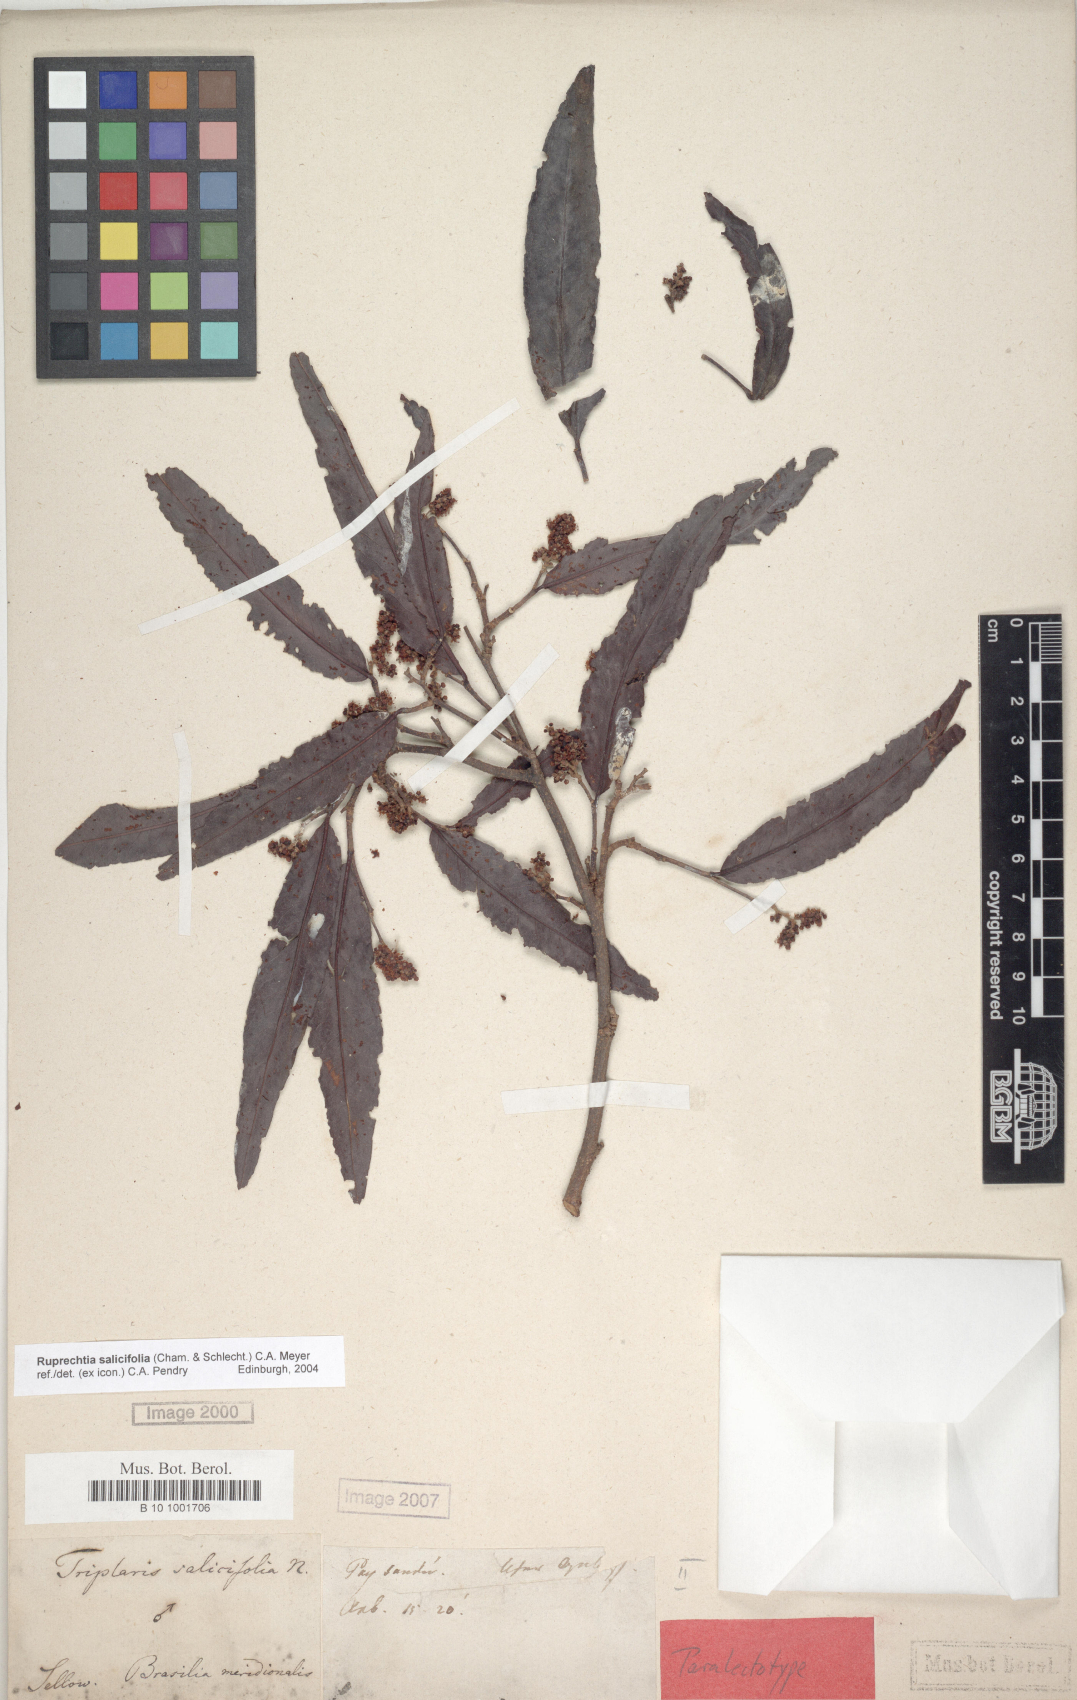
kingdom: Plantae
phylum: Tracheophyta
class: Magnoliopsida
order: Caryophyllales
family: Polygonaceae
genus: Ruprechtia
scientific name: Ruprechtia salicifolia
